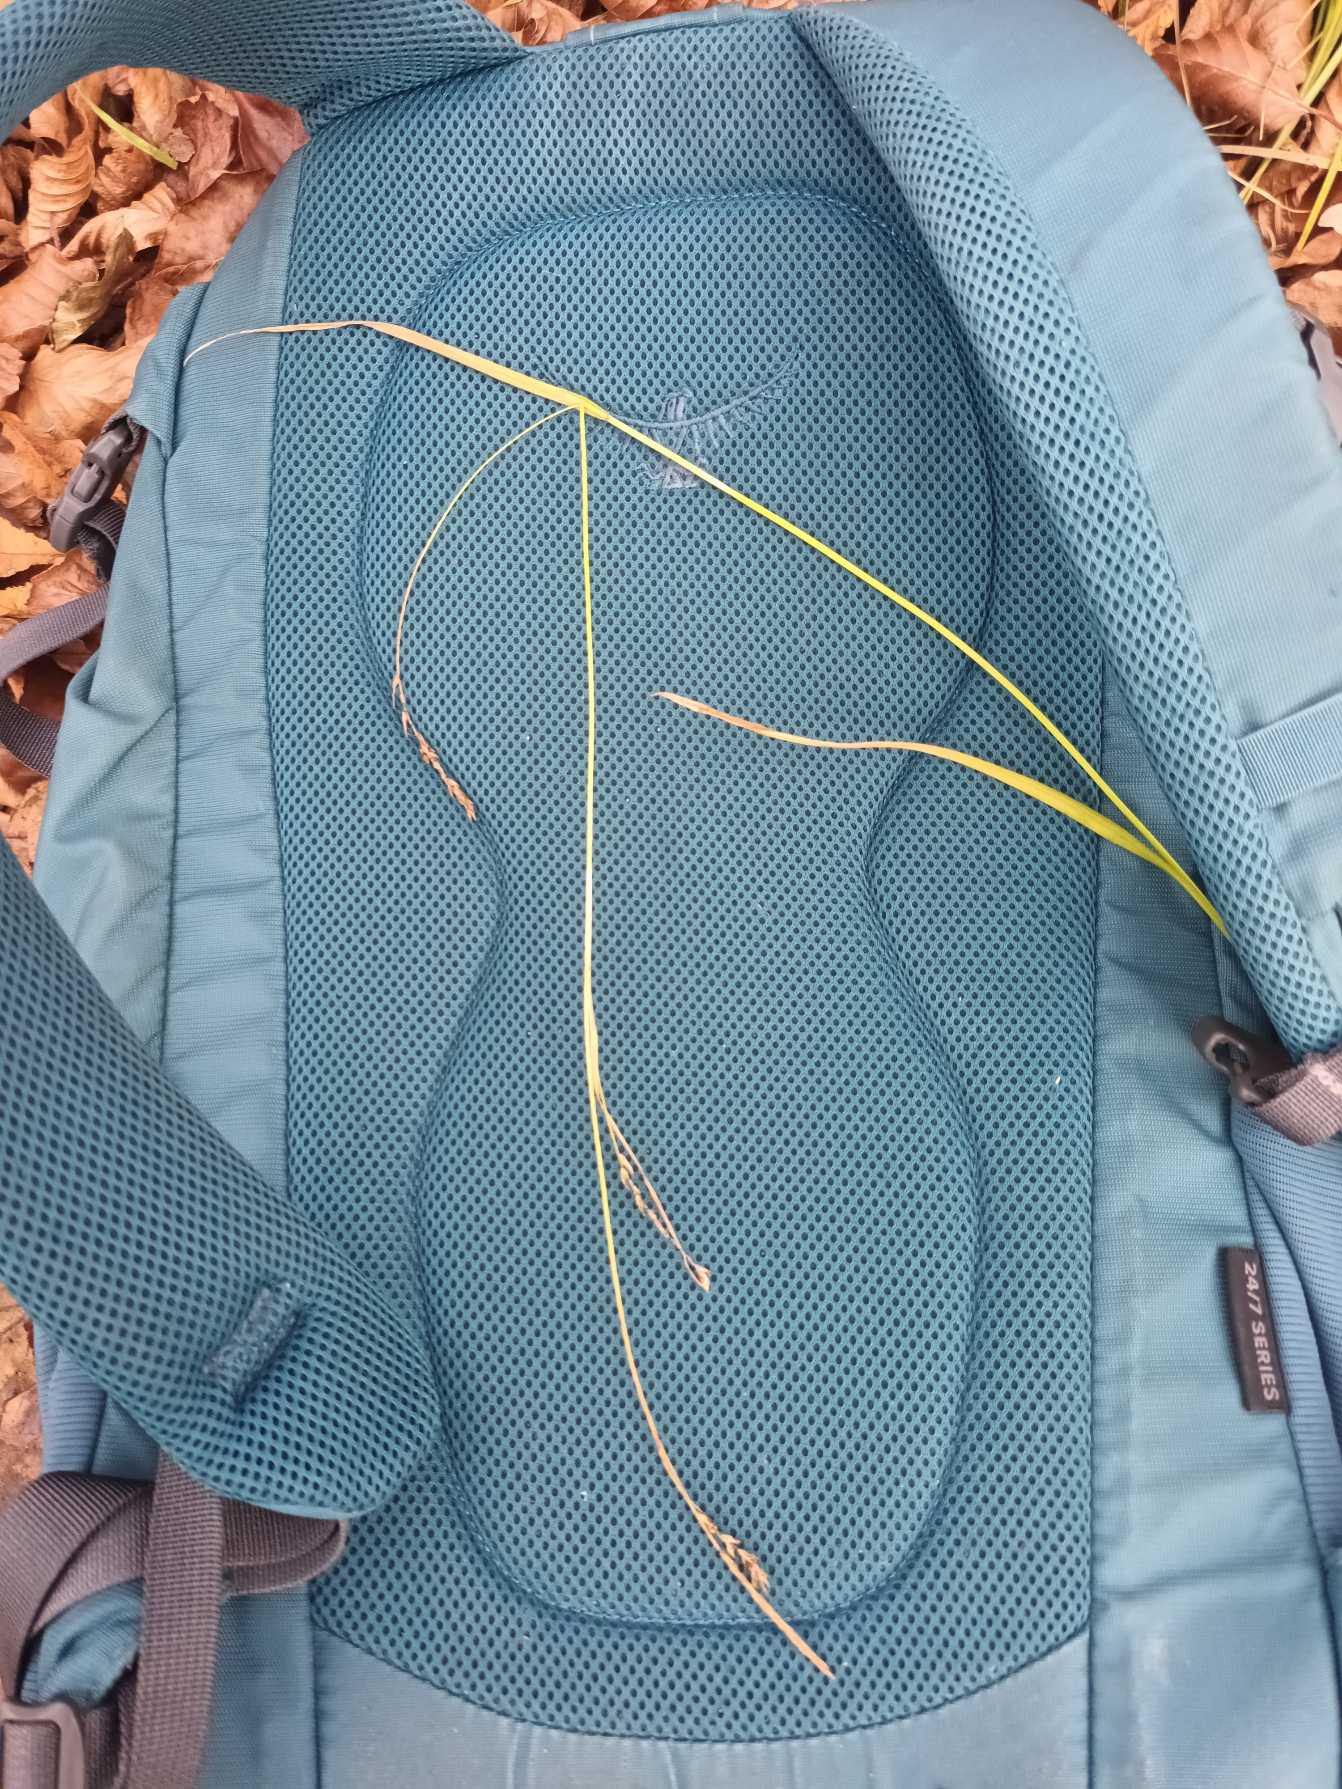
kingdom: Plantae
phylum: Tracheophyta
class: Liliopsida
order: Poales
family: Cyperaceae
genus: Carex
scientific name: Carex sylvatica
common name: Skov-star
